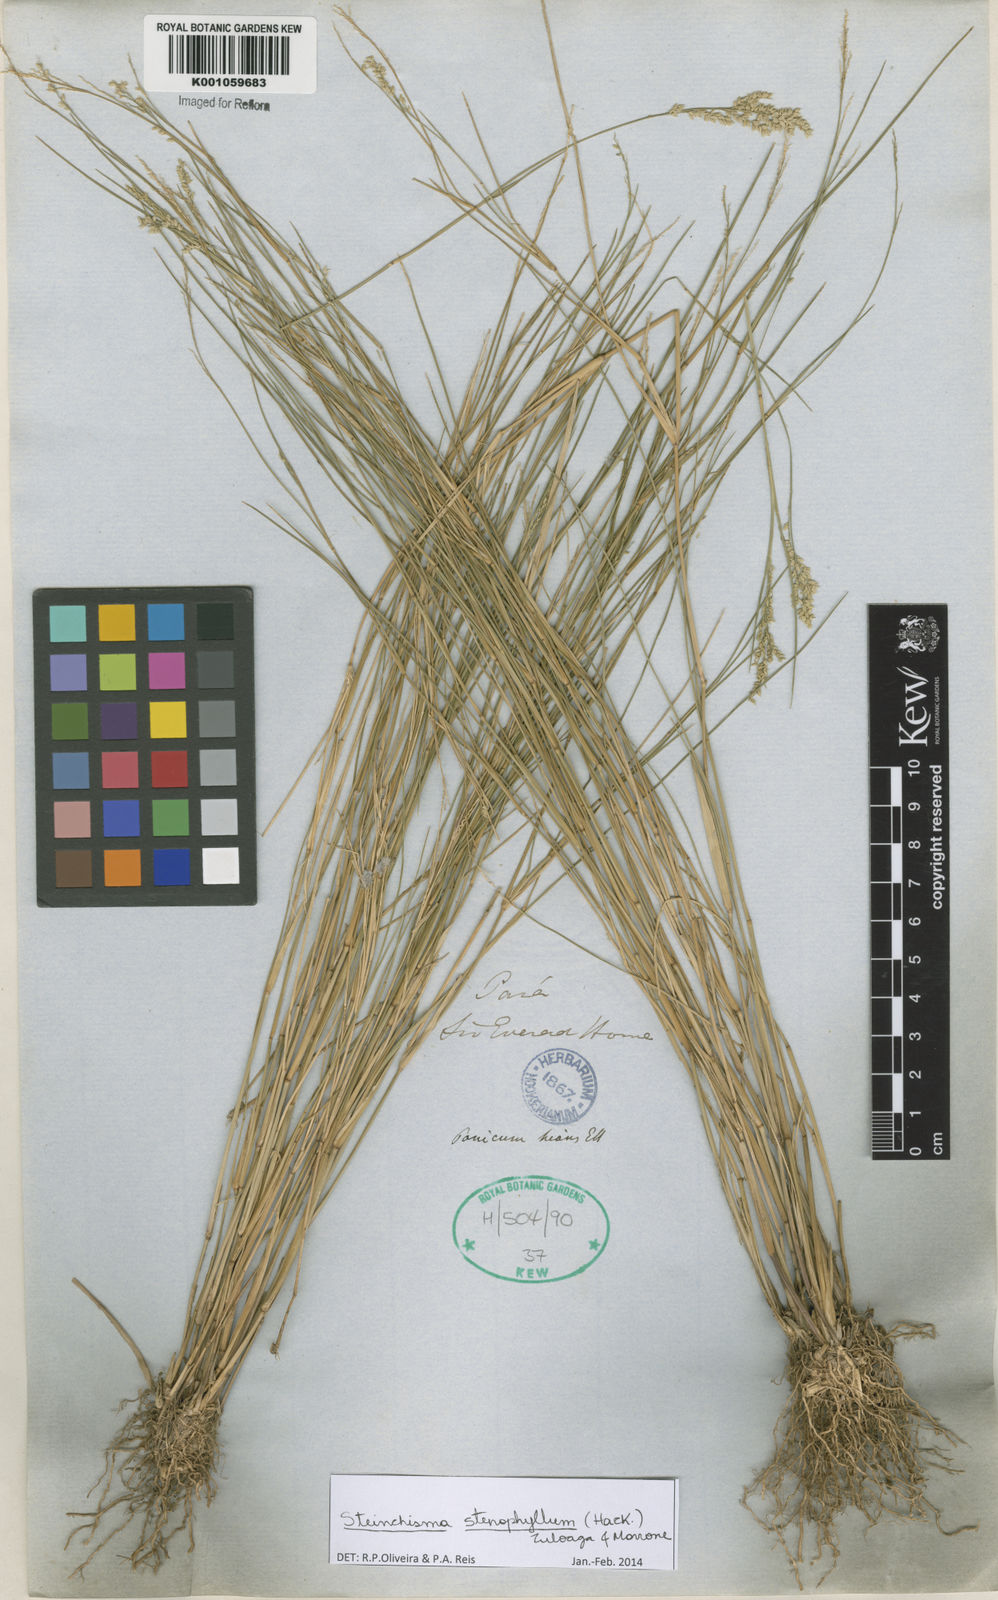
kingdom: Plantae
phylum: Tracheophyta
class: Liliopsida
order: Poales
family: Poaceae
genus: Steinchisma
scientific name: Steinchisma stenophyllum
